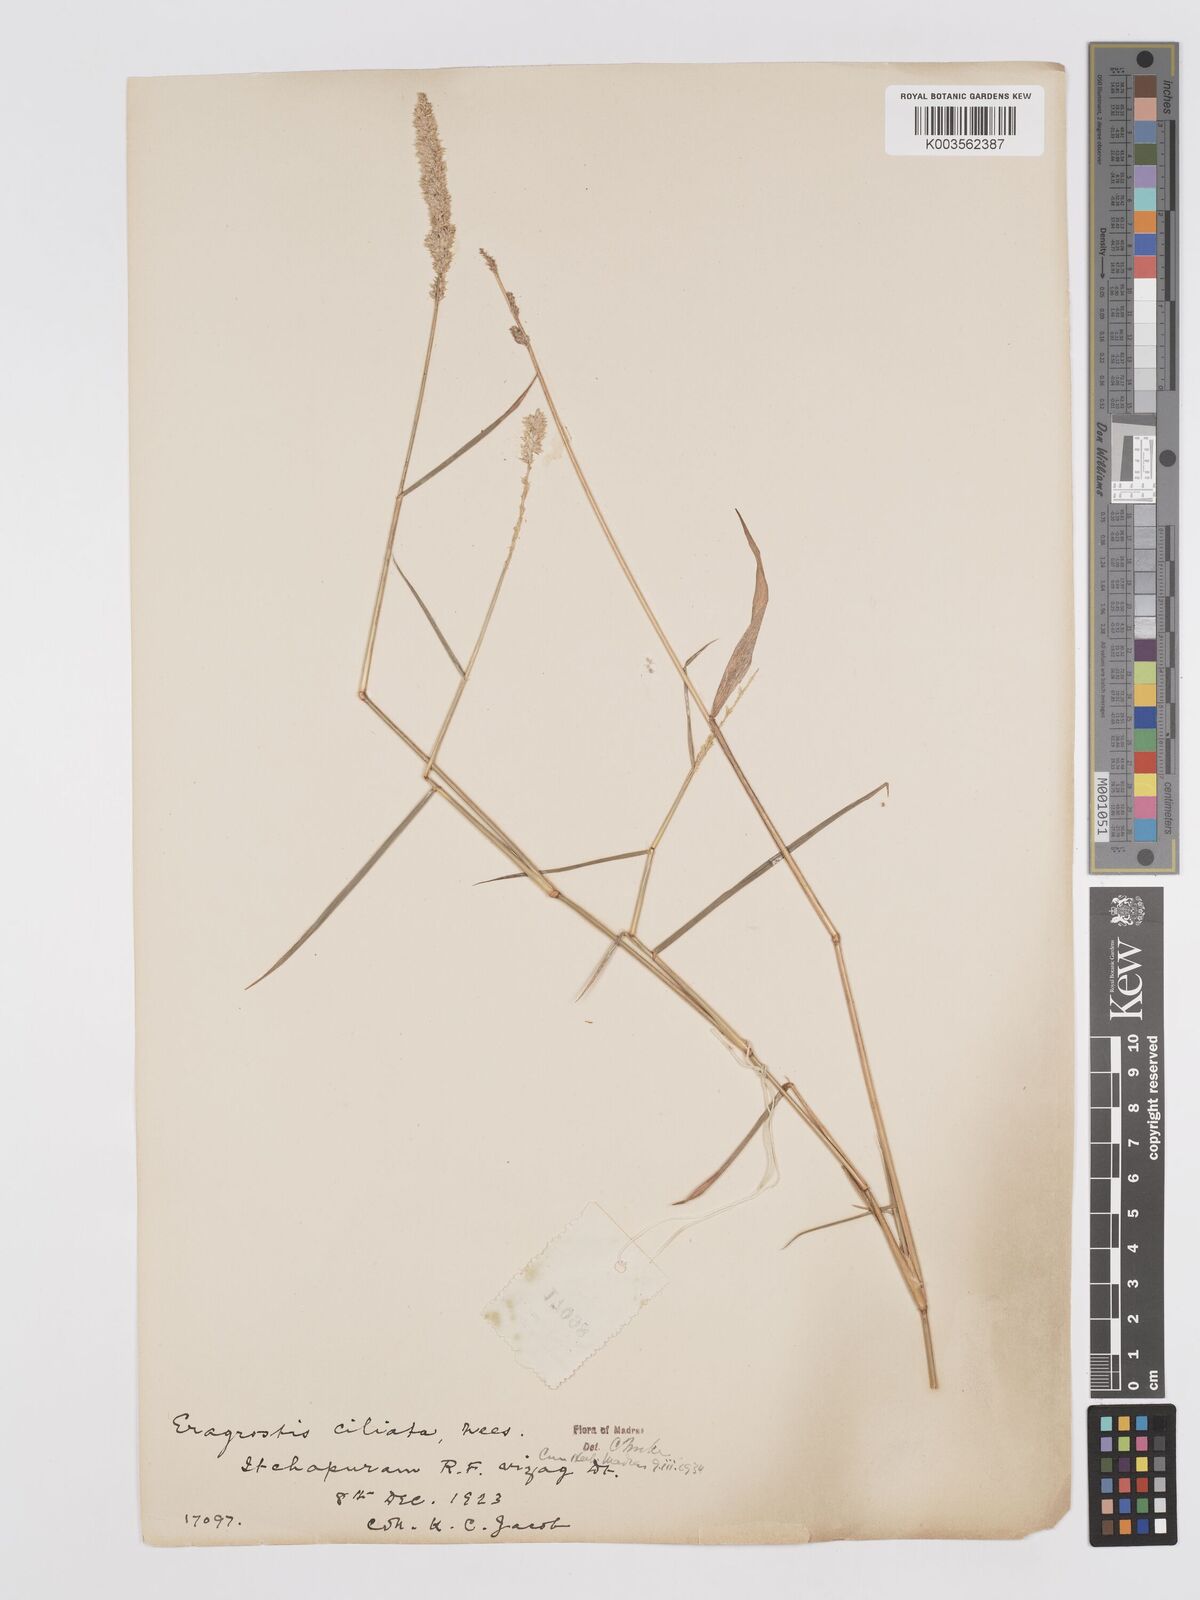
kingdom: Plantae
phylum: Tracheophyta
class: Liliopsida
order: Poales
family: Poaceae
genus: Eragrostis
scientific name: Eragrostis ciliata
